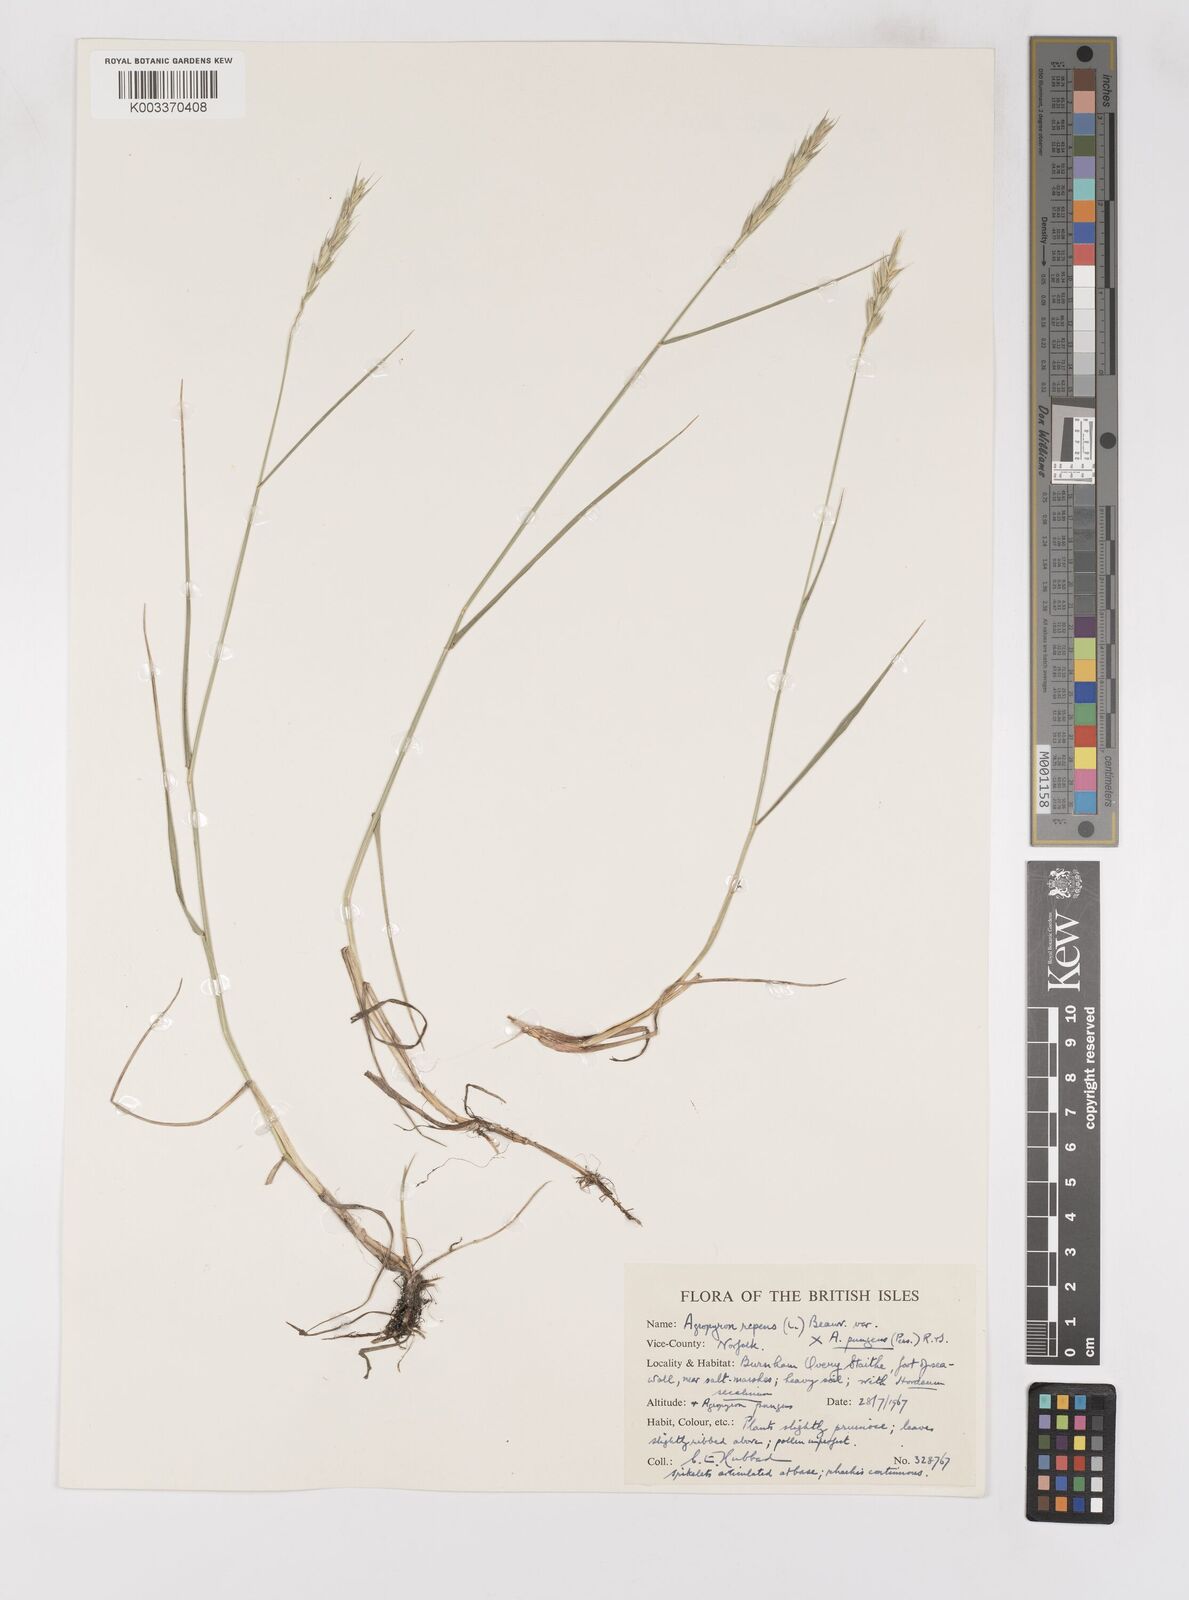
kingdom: Plantae
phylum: Tracheophyta
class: Liliopsida
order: Poales
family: Poaceae
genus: Elymus
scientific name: Elymus oliveri
